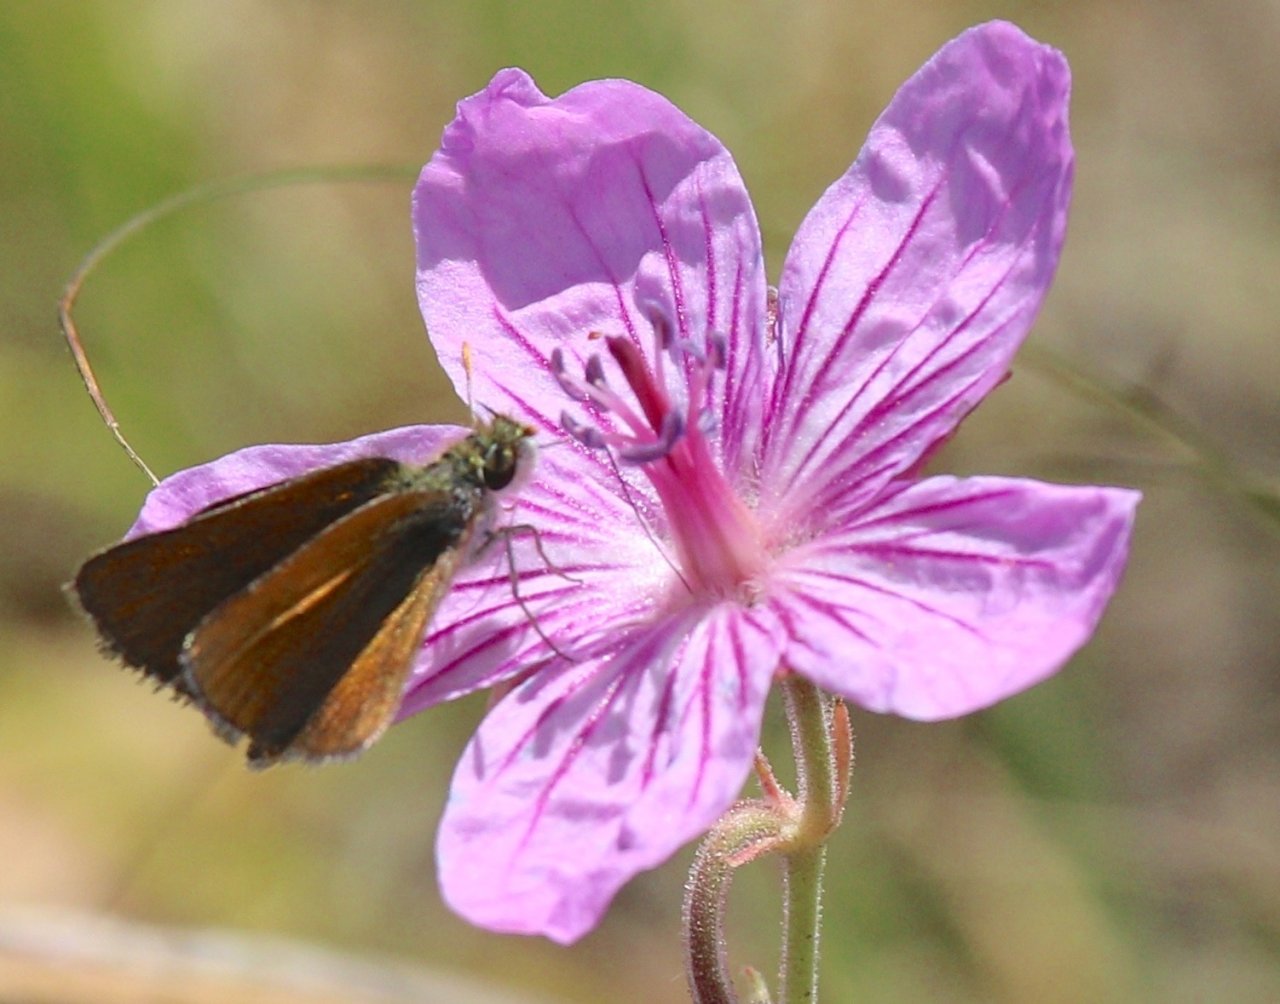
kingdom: Animalia
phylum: Arthropoda
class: Insecta
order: Lepidoptera
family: Hesperiidae
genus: Oarisma
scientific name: Oarisma garita
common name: Garita Skipperling
